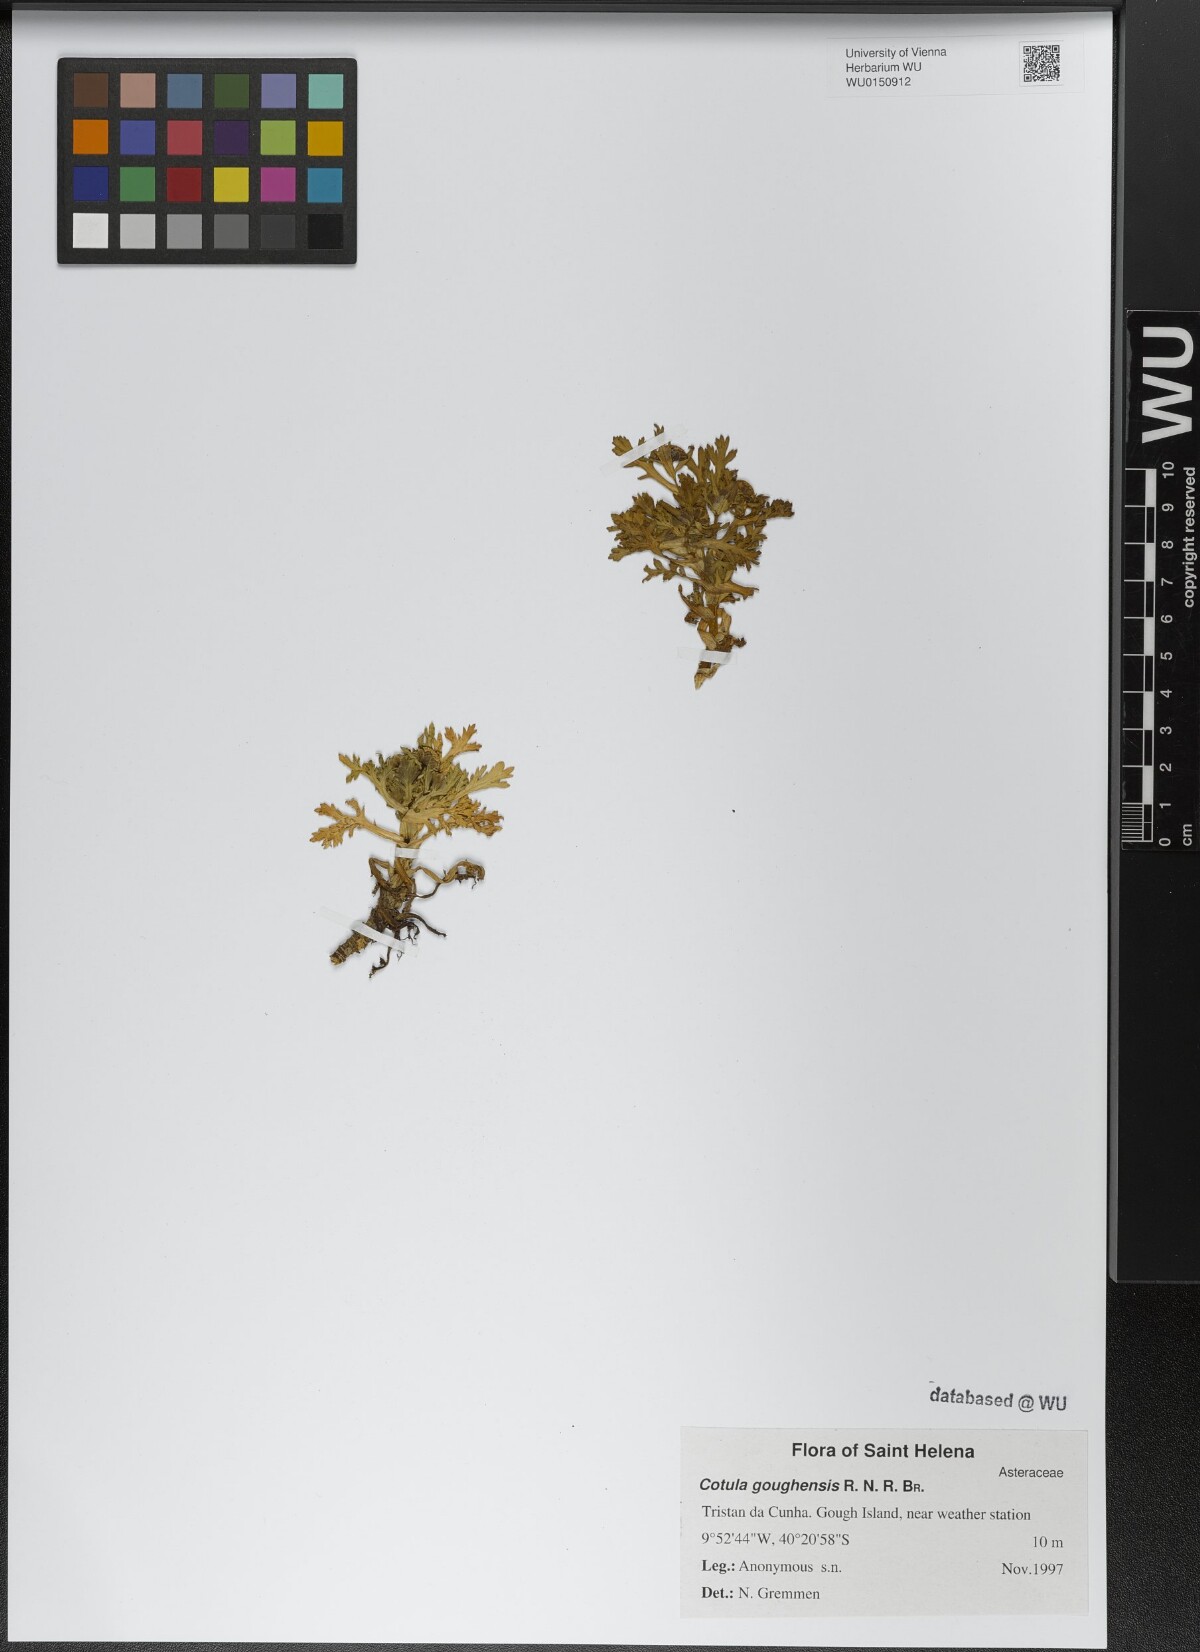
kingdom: Plantae
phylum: Tracheophyta
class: Magnoliopsida
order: Asterales
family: Asteraceae
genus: Cotula
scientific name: Cotula goughensis
